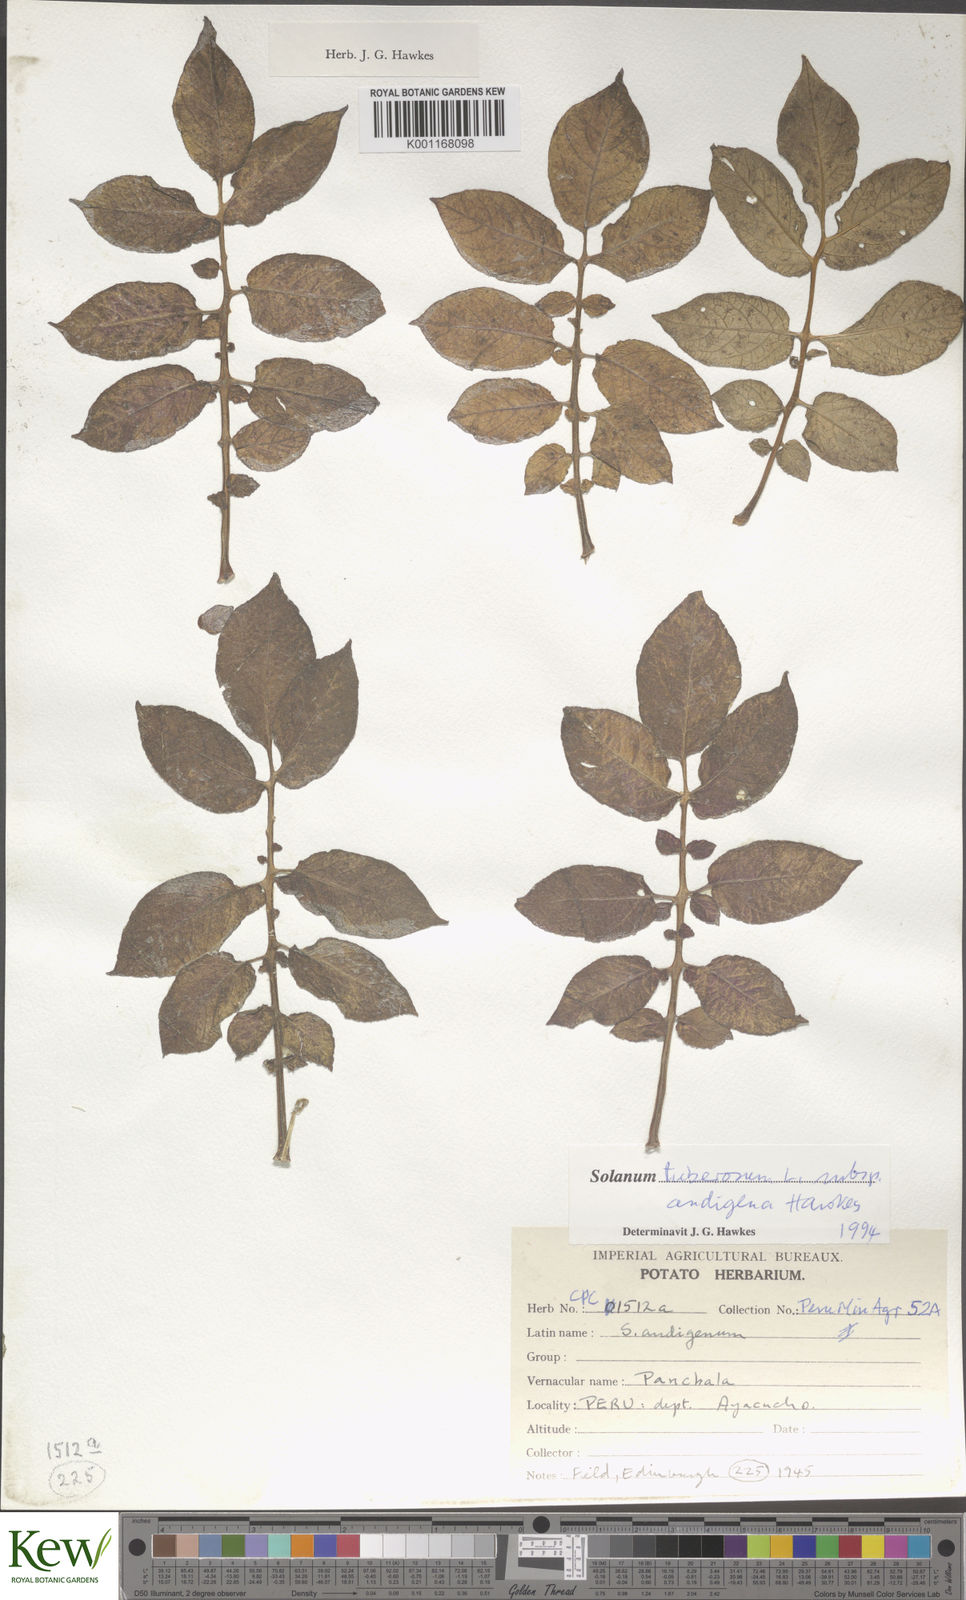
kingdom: Plantae
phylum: Tracheophyta
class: Magnoliopsida
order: Solanales
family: Solanaceae
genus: Solanum
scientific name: Solanum tuberosum
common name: Potato
